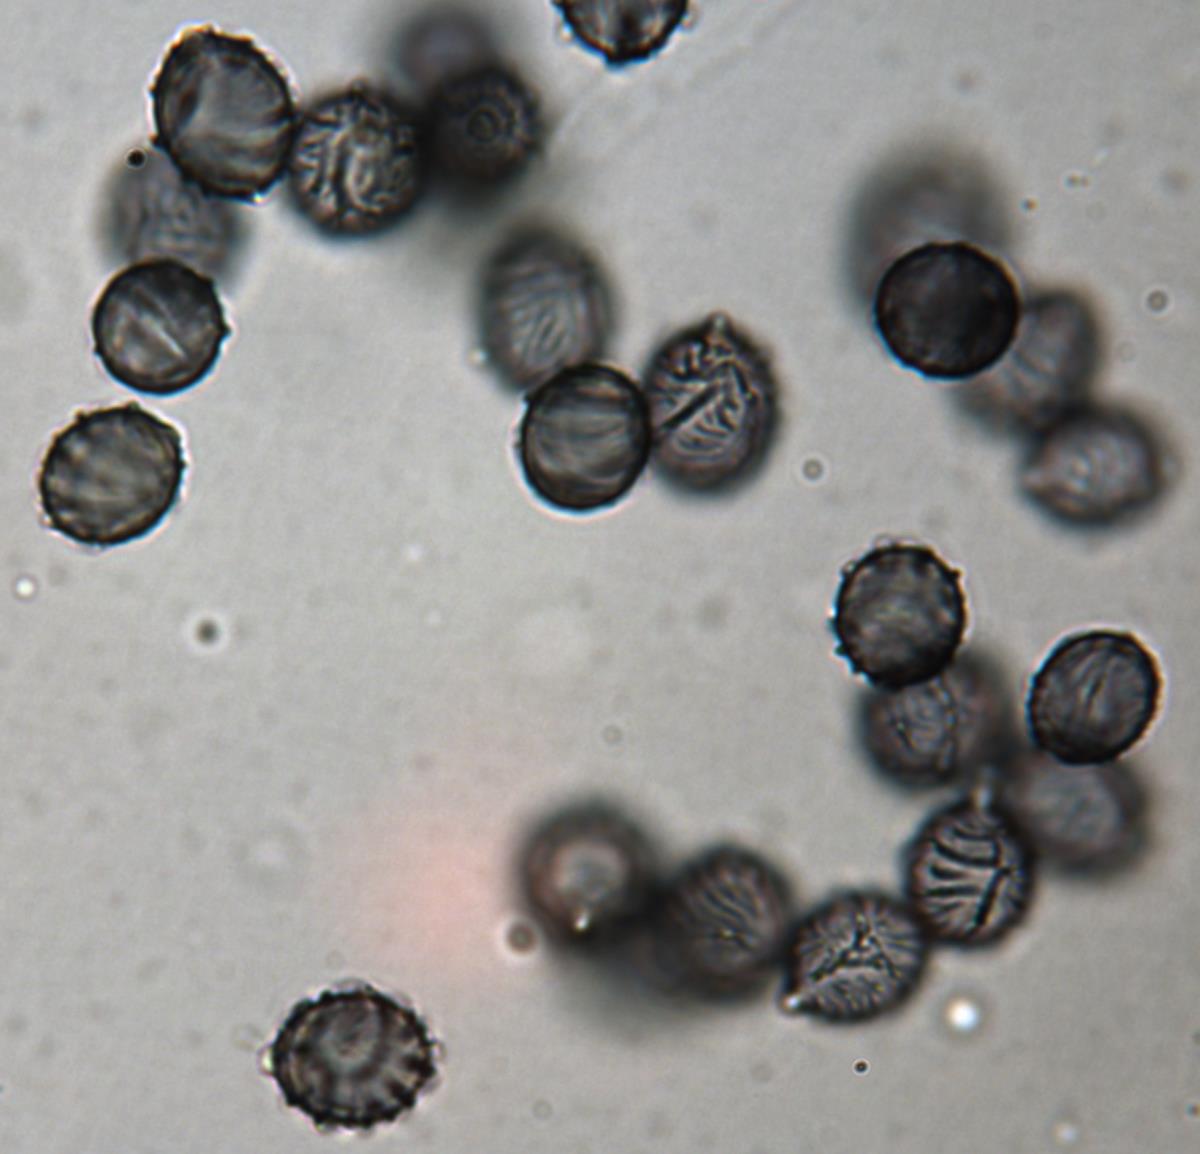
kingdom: Fungi
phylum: Basidiomycota
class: Agaricomycetes
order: Russulales
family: Russulaceae
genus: Zelleromyces
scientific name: Zelleromyces
